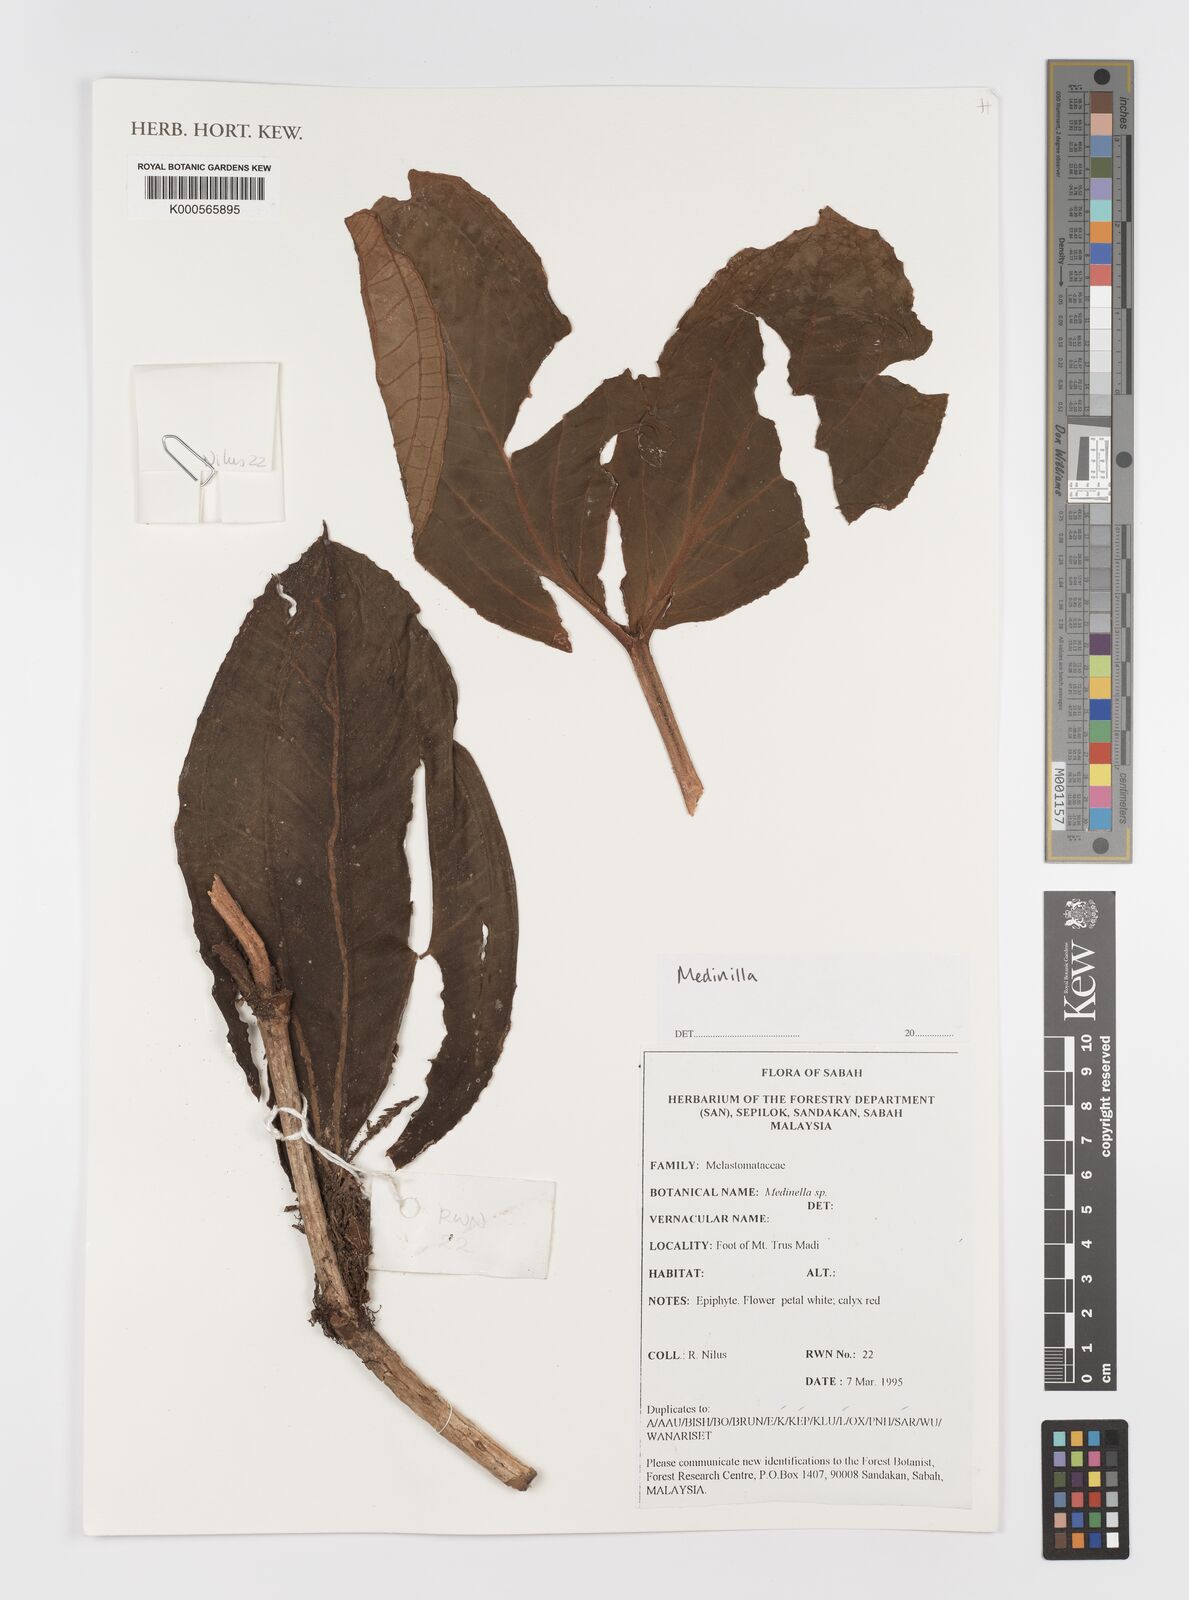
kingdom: Plantae
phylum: Tracheophyta
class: Magnoliopsida
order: Myrtales
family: Melastomataceae
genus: Medinilla
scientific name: Medinilla
